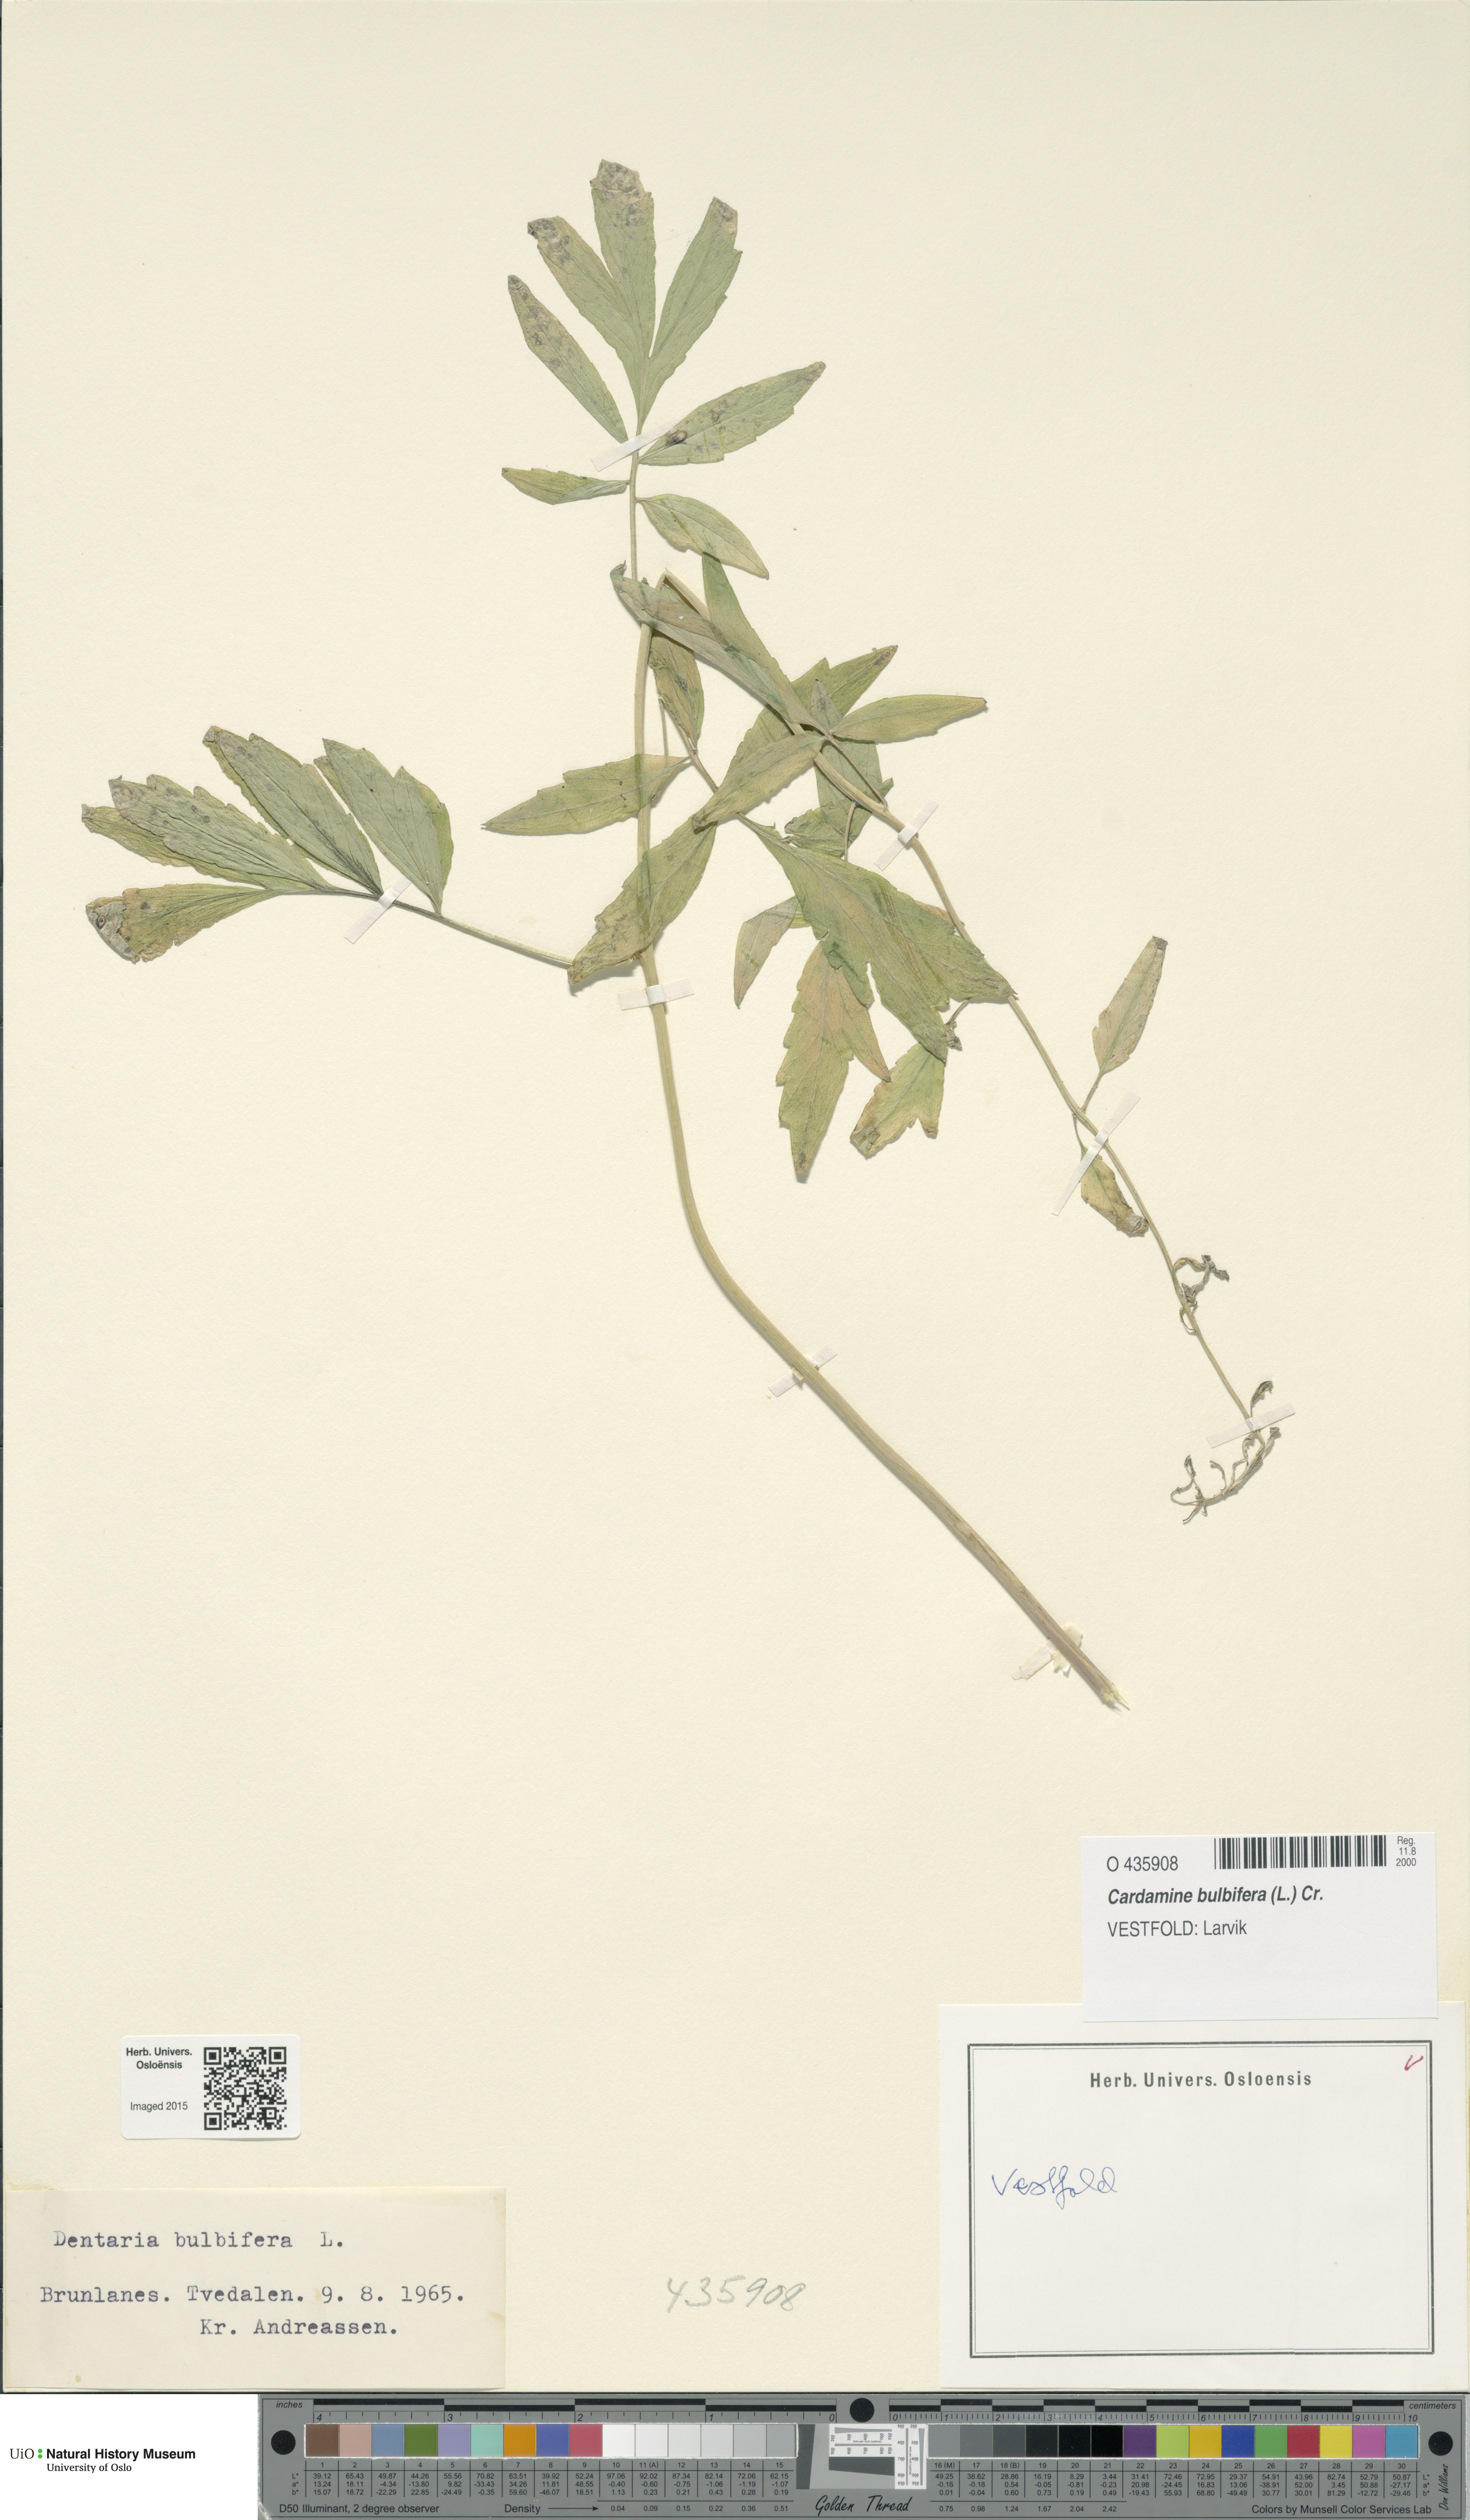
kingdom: Plantae
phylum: Tracheophyta
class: Magnoliopsida
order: Brassicales
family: Brassicaceae
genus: Cardamine
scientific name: Cardamine bulbifera
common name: Coralroot bittercress
